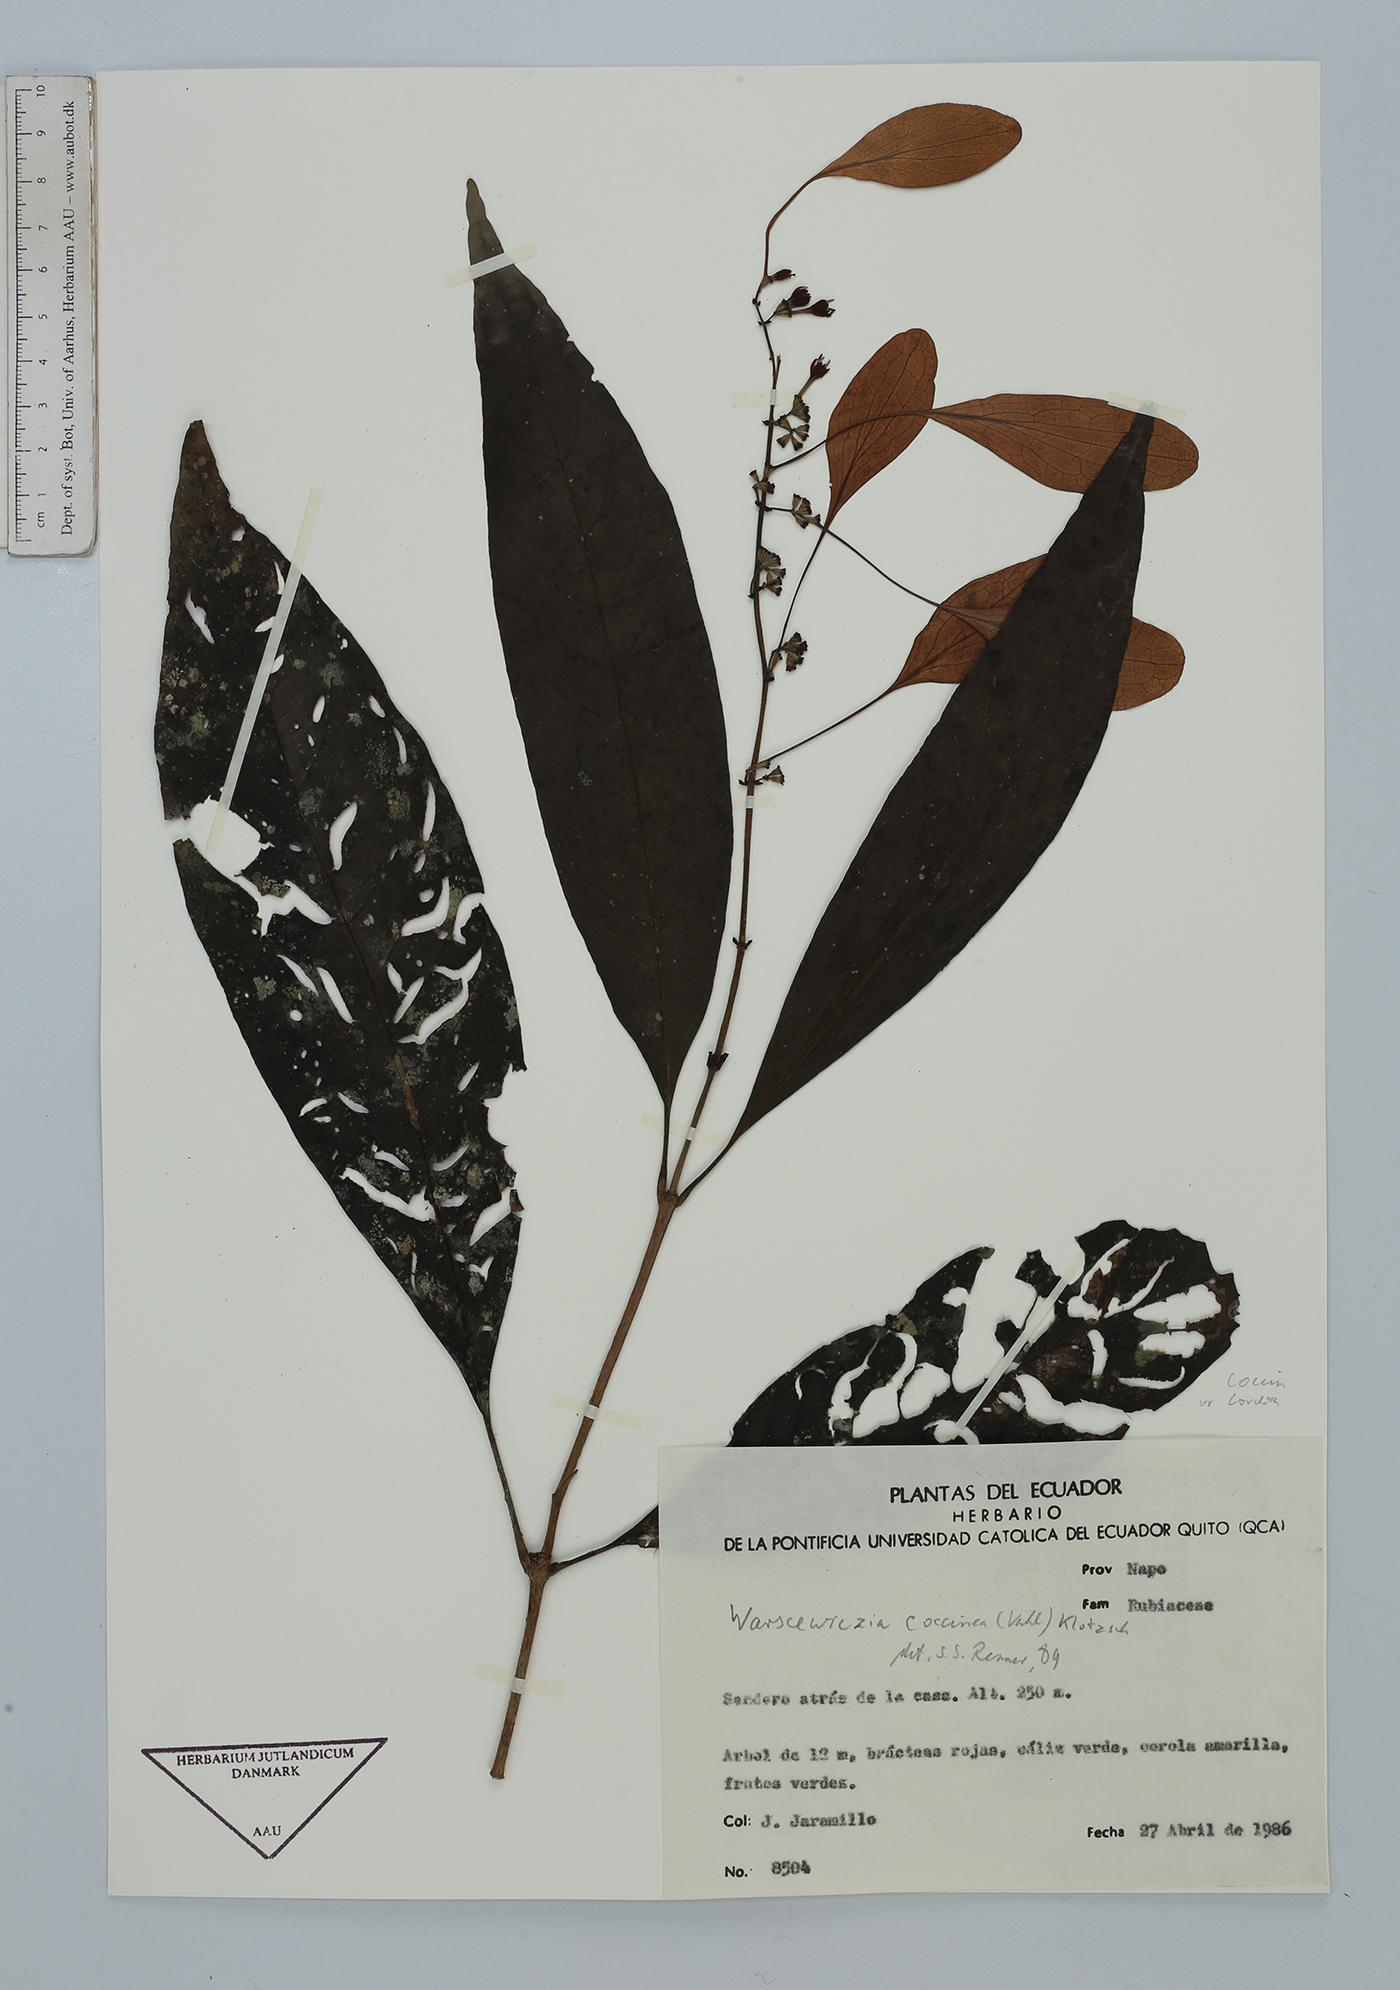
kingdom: Plantae
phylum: Tracheophyta
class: Magnoliopsida
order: Gentianales
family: Rubiaceae
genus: Warszewiczia
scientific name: Warszewiczia coccinea
